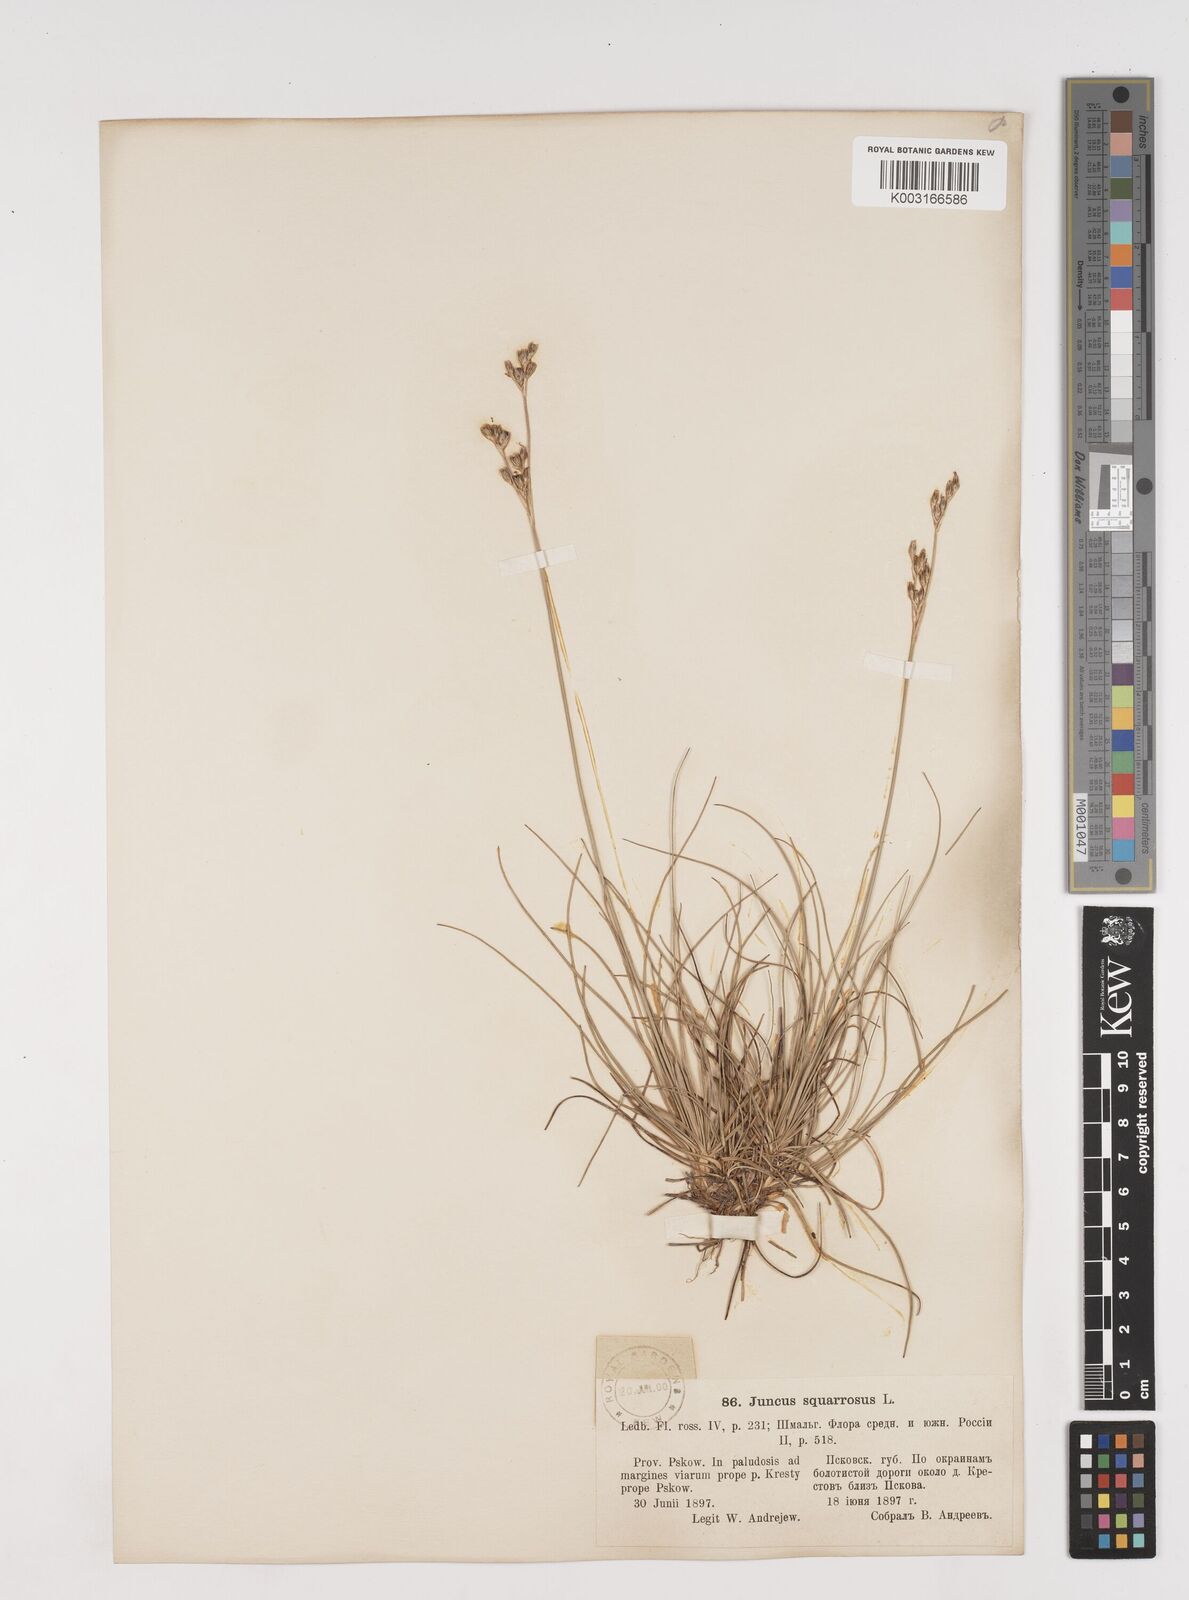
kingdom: Plantae
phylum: Tracheophyta
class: Liliopsida
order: Poales
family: Juncaceae
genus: Juncus
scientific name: Juncus squarrosus
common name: Heath rush
